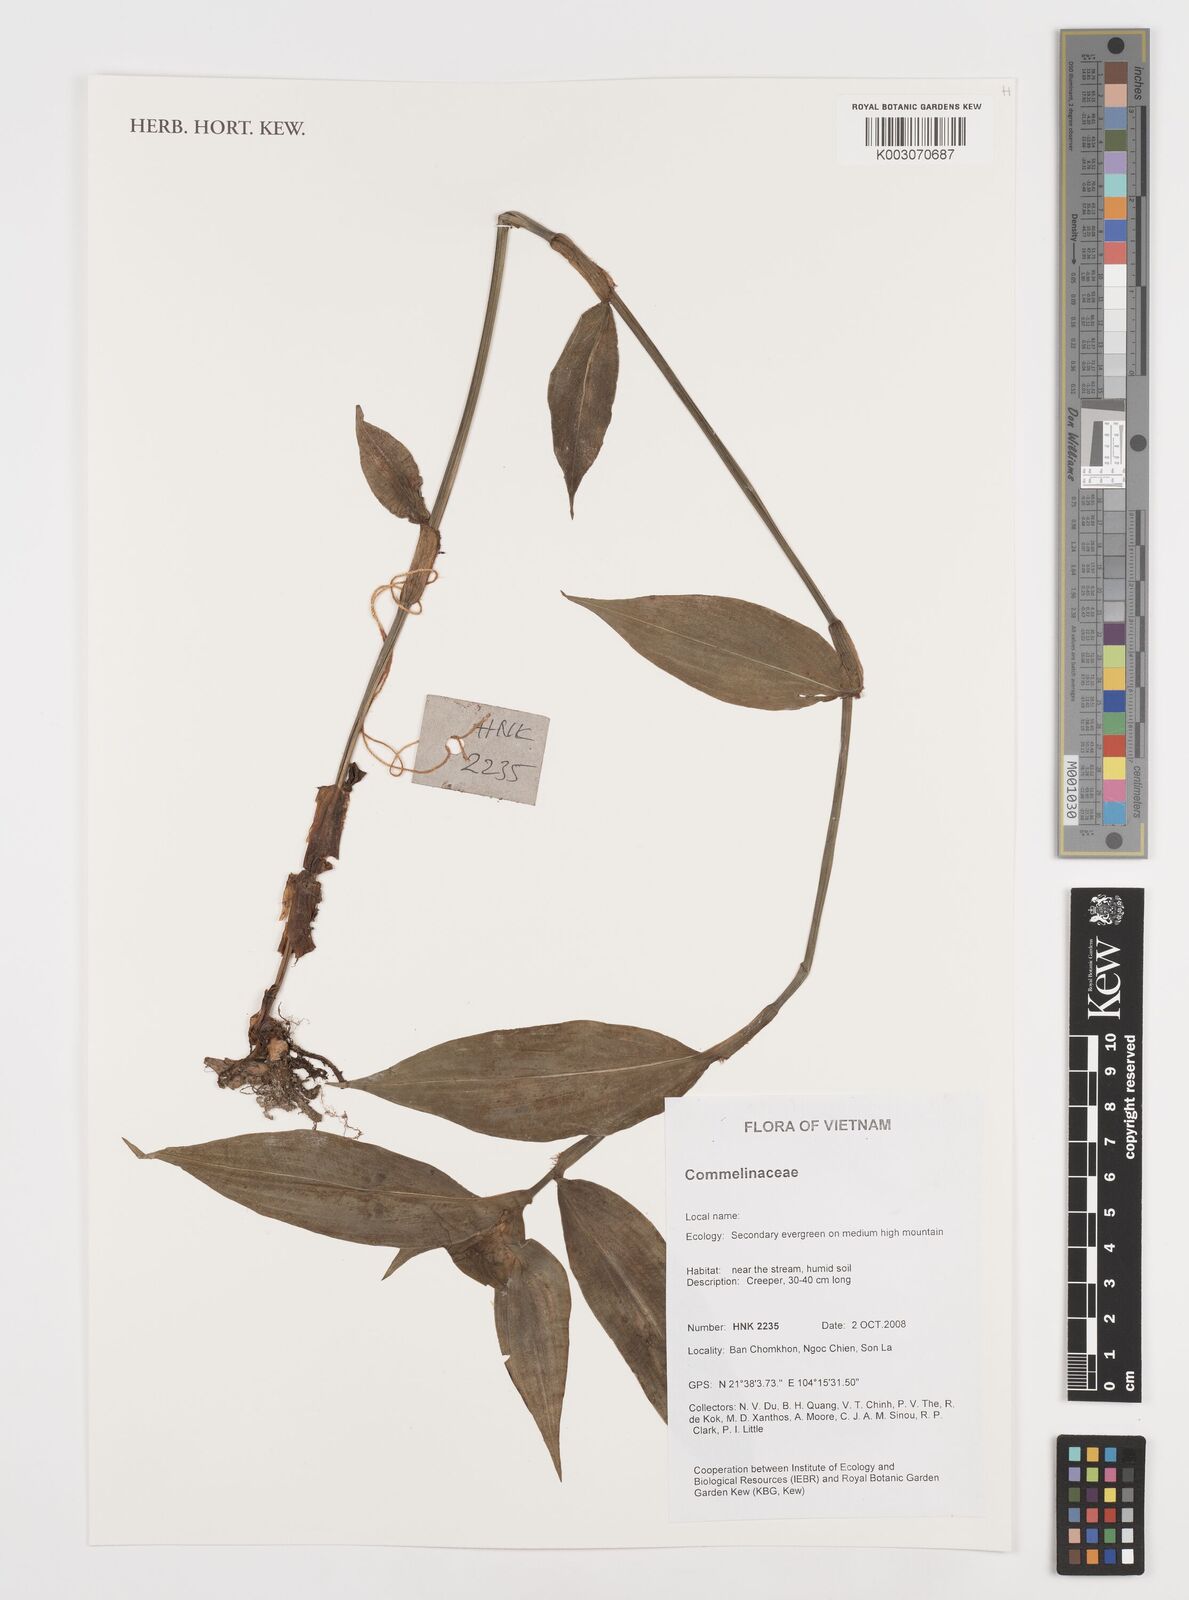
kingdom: Plantae
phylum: Tracheophyta
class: Liliopsida
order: Commelinales
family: Commelinaceae
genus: Commelina
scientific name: Commelina
